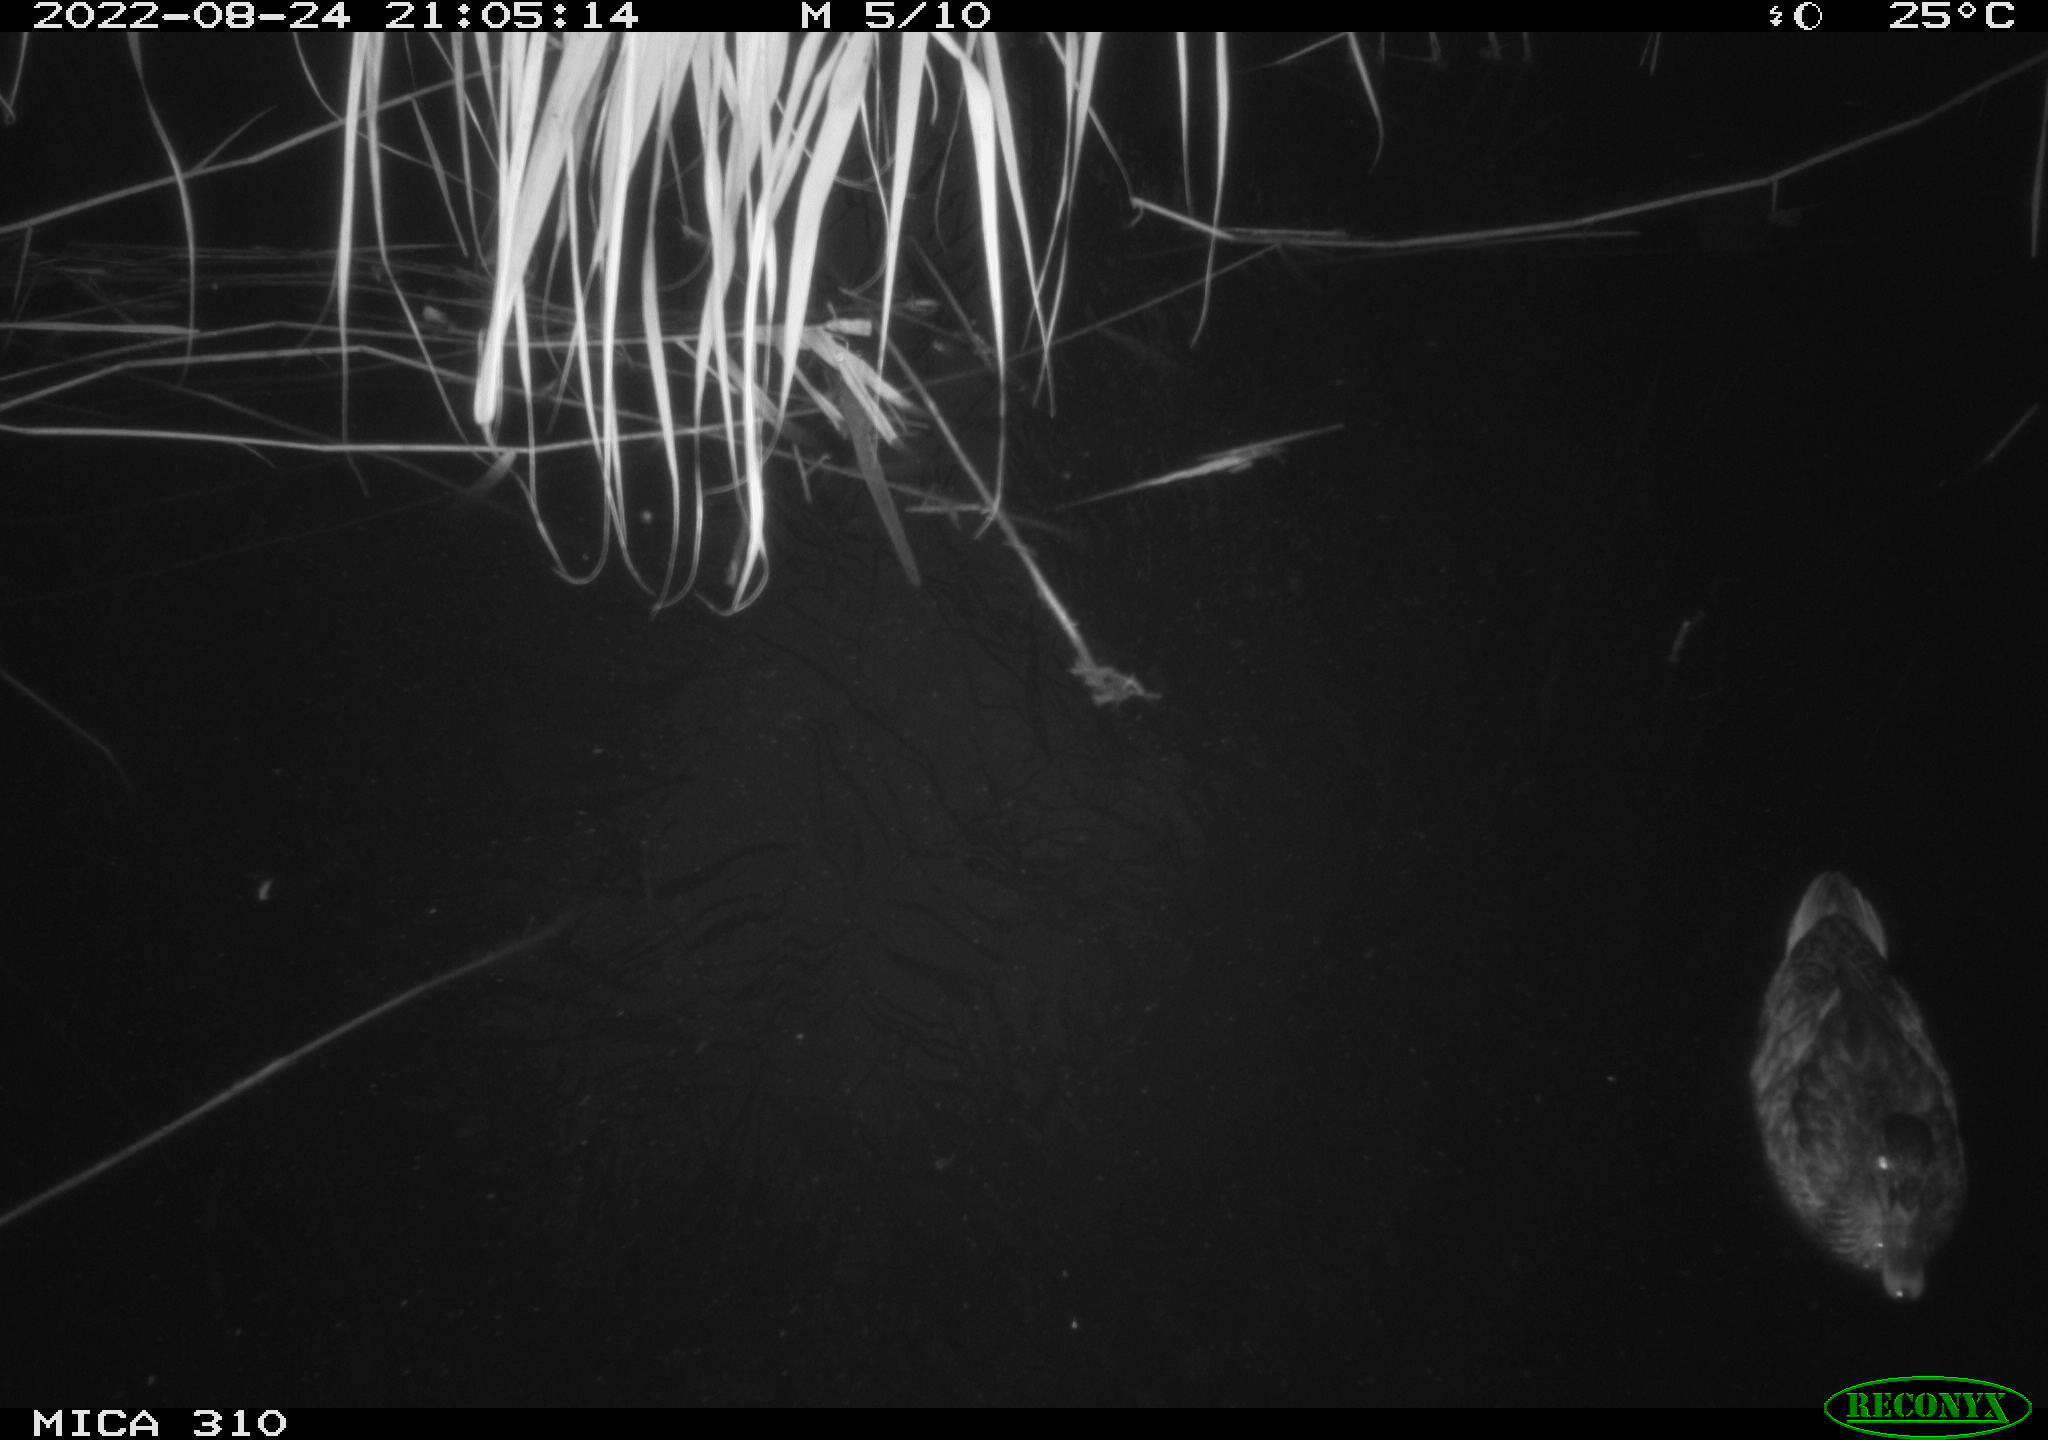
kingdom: Animalia
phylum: Chordata
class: Aves
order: Anseriformes
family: Anatidae
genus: Anas
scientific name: Anas platyrhynchos
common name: Mallard
